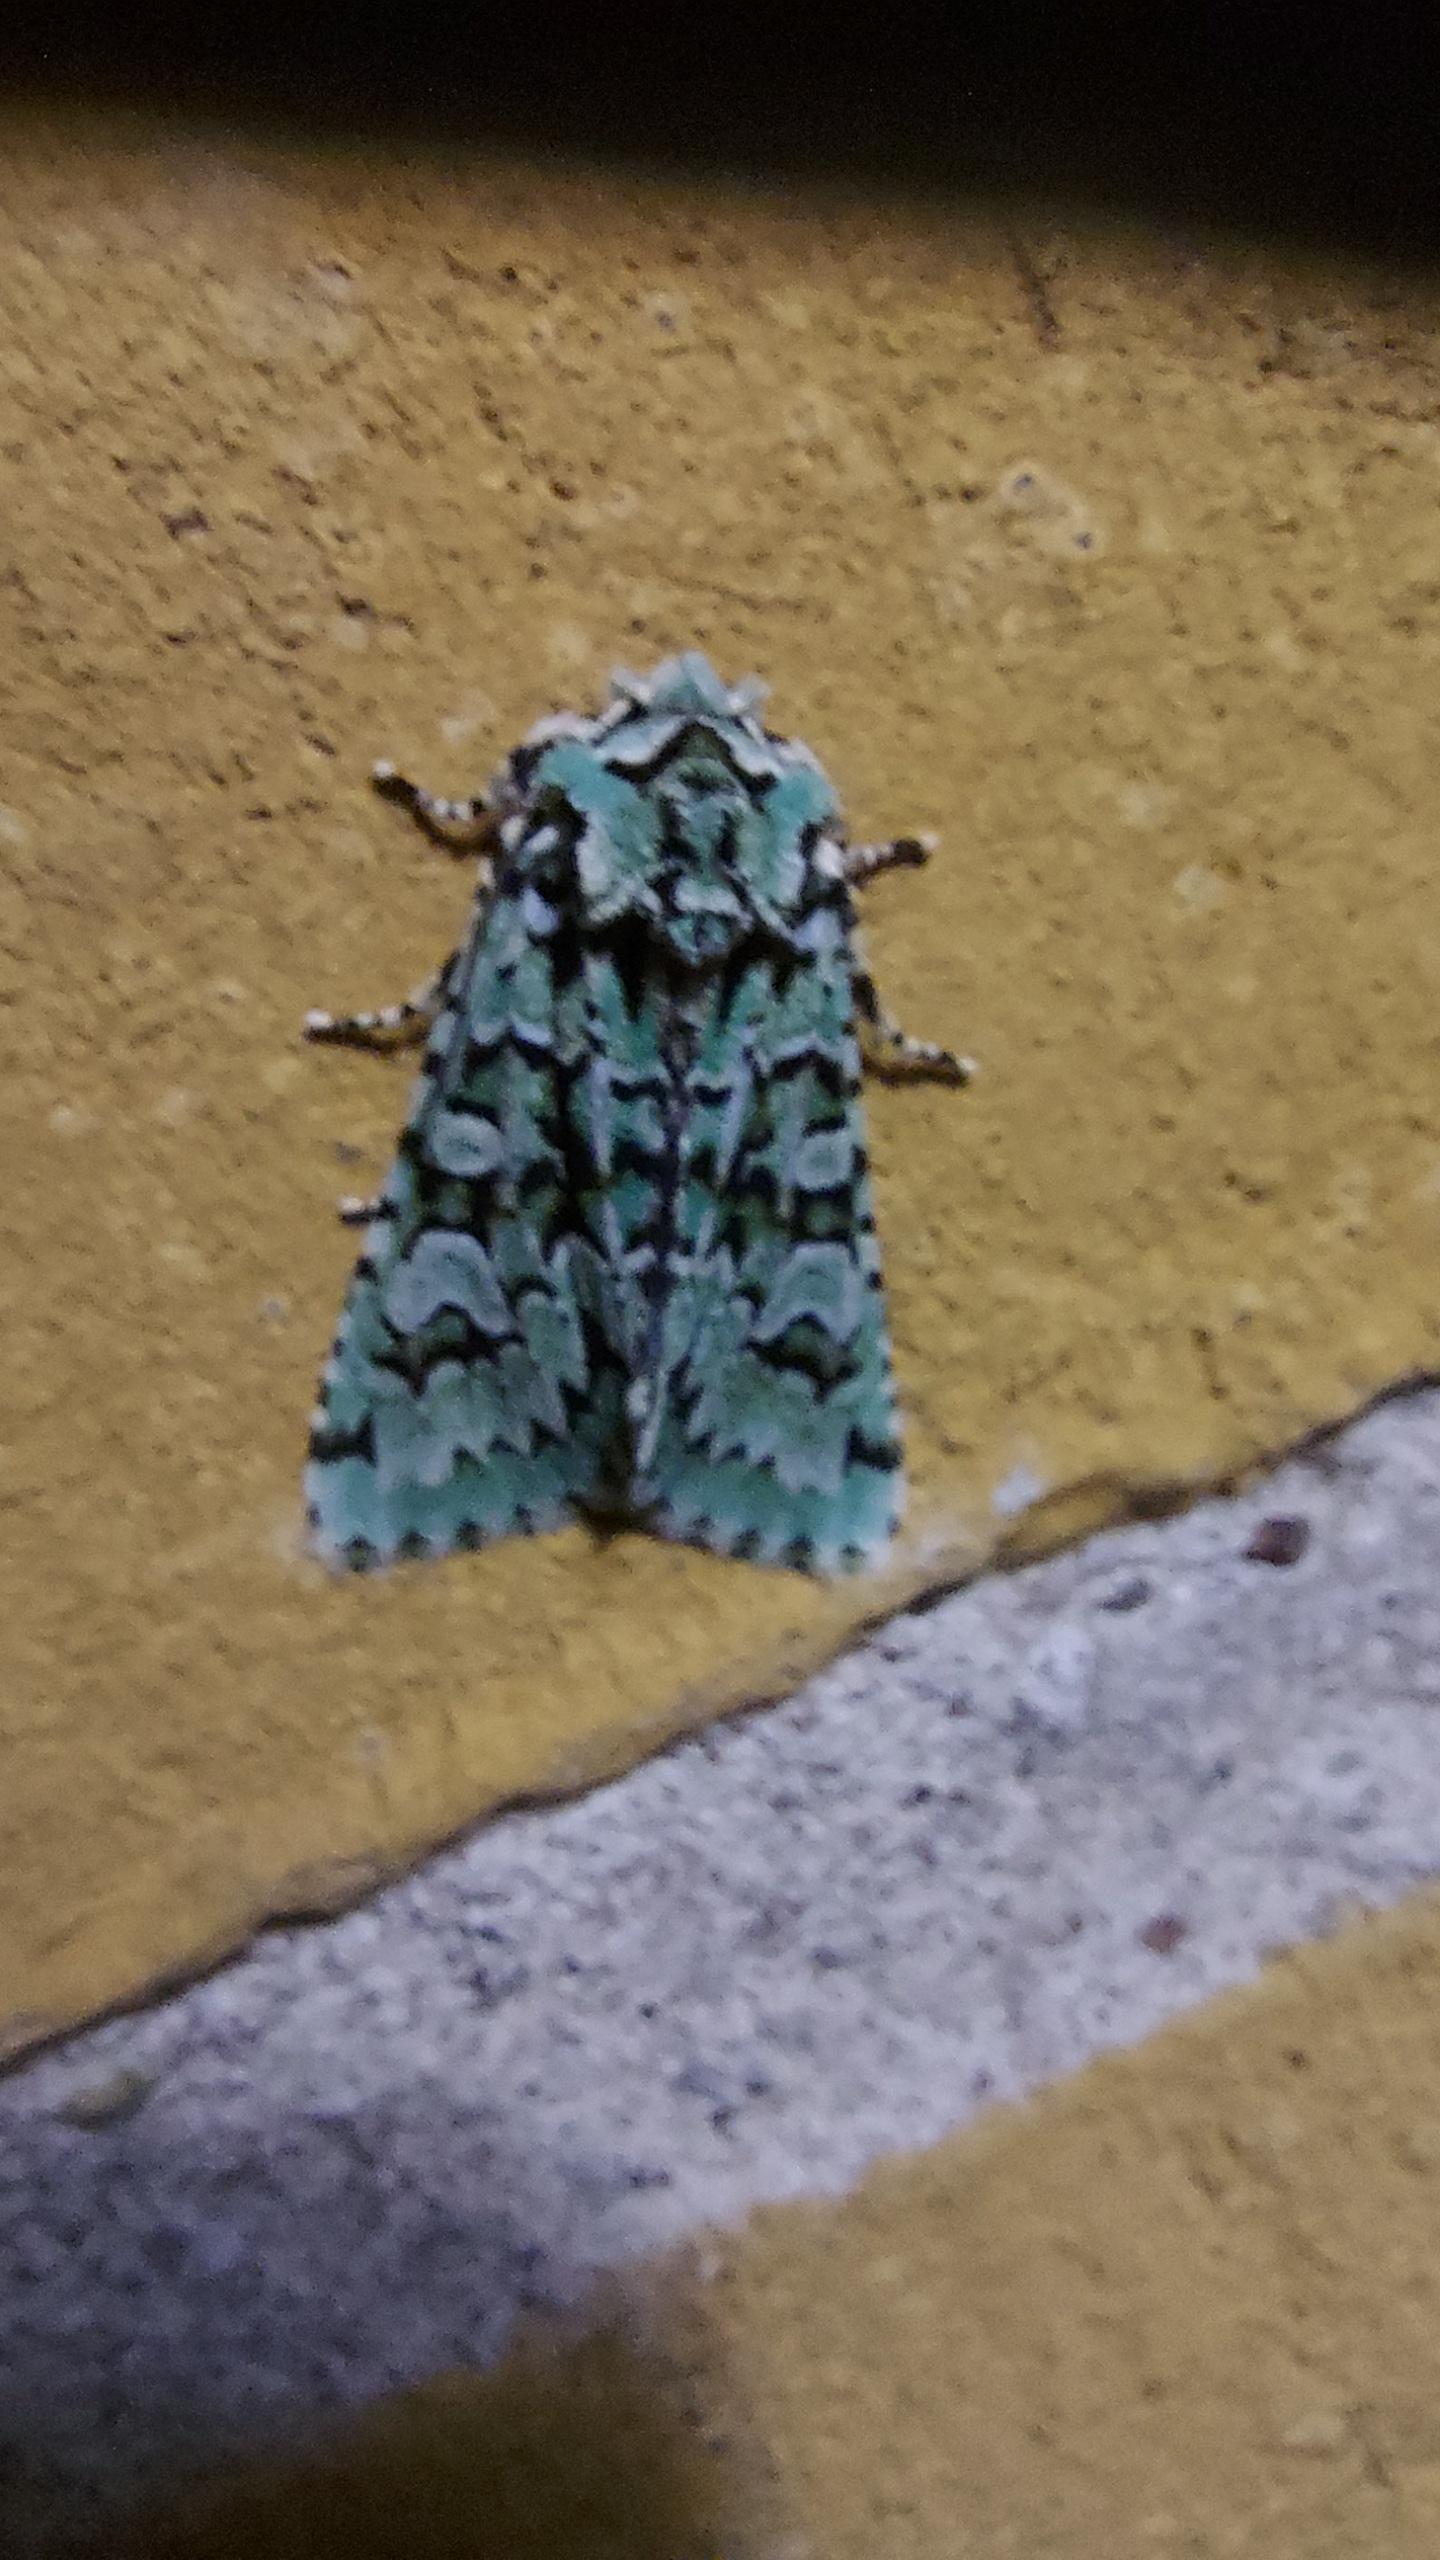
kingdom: Animalia
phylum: Arthropoda
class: Insecta
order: Lepidoptera
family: Noctuidae
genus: Griposia
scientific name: Griposia aprilina
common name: Aprilugle
